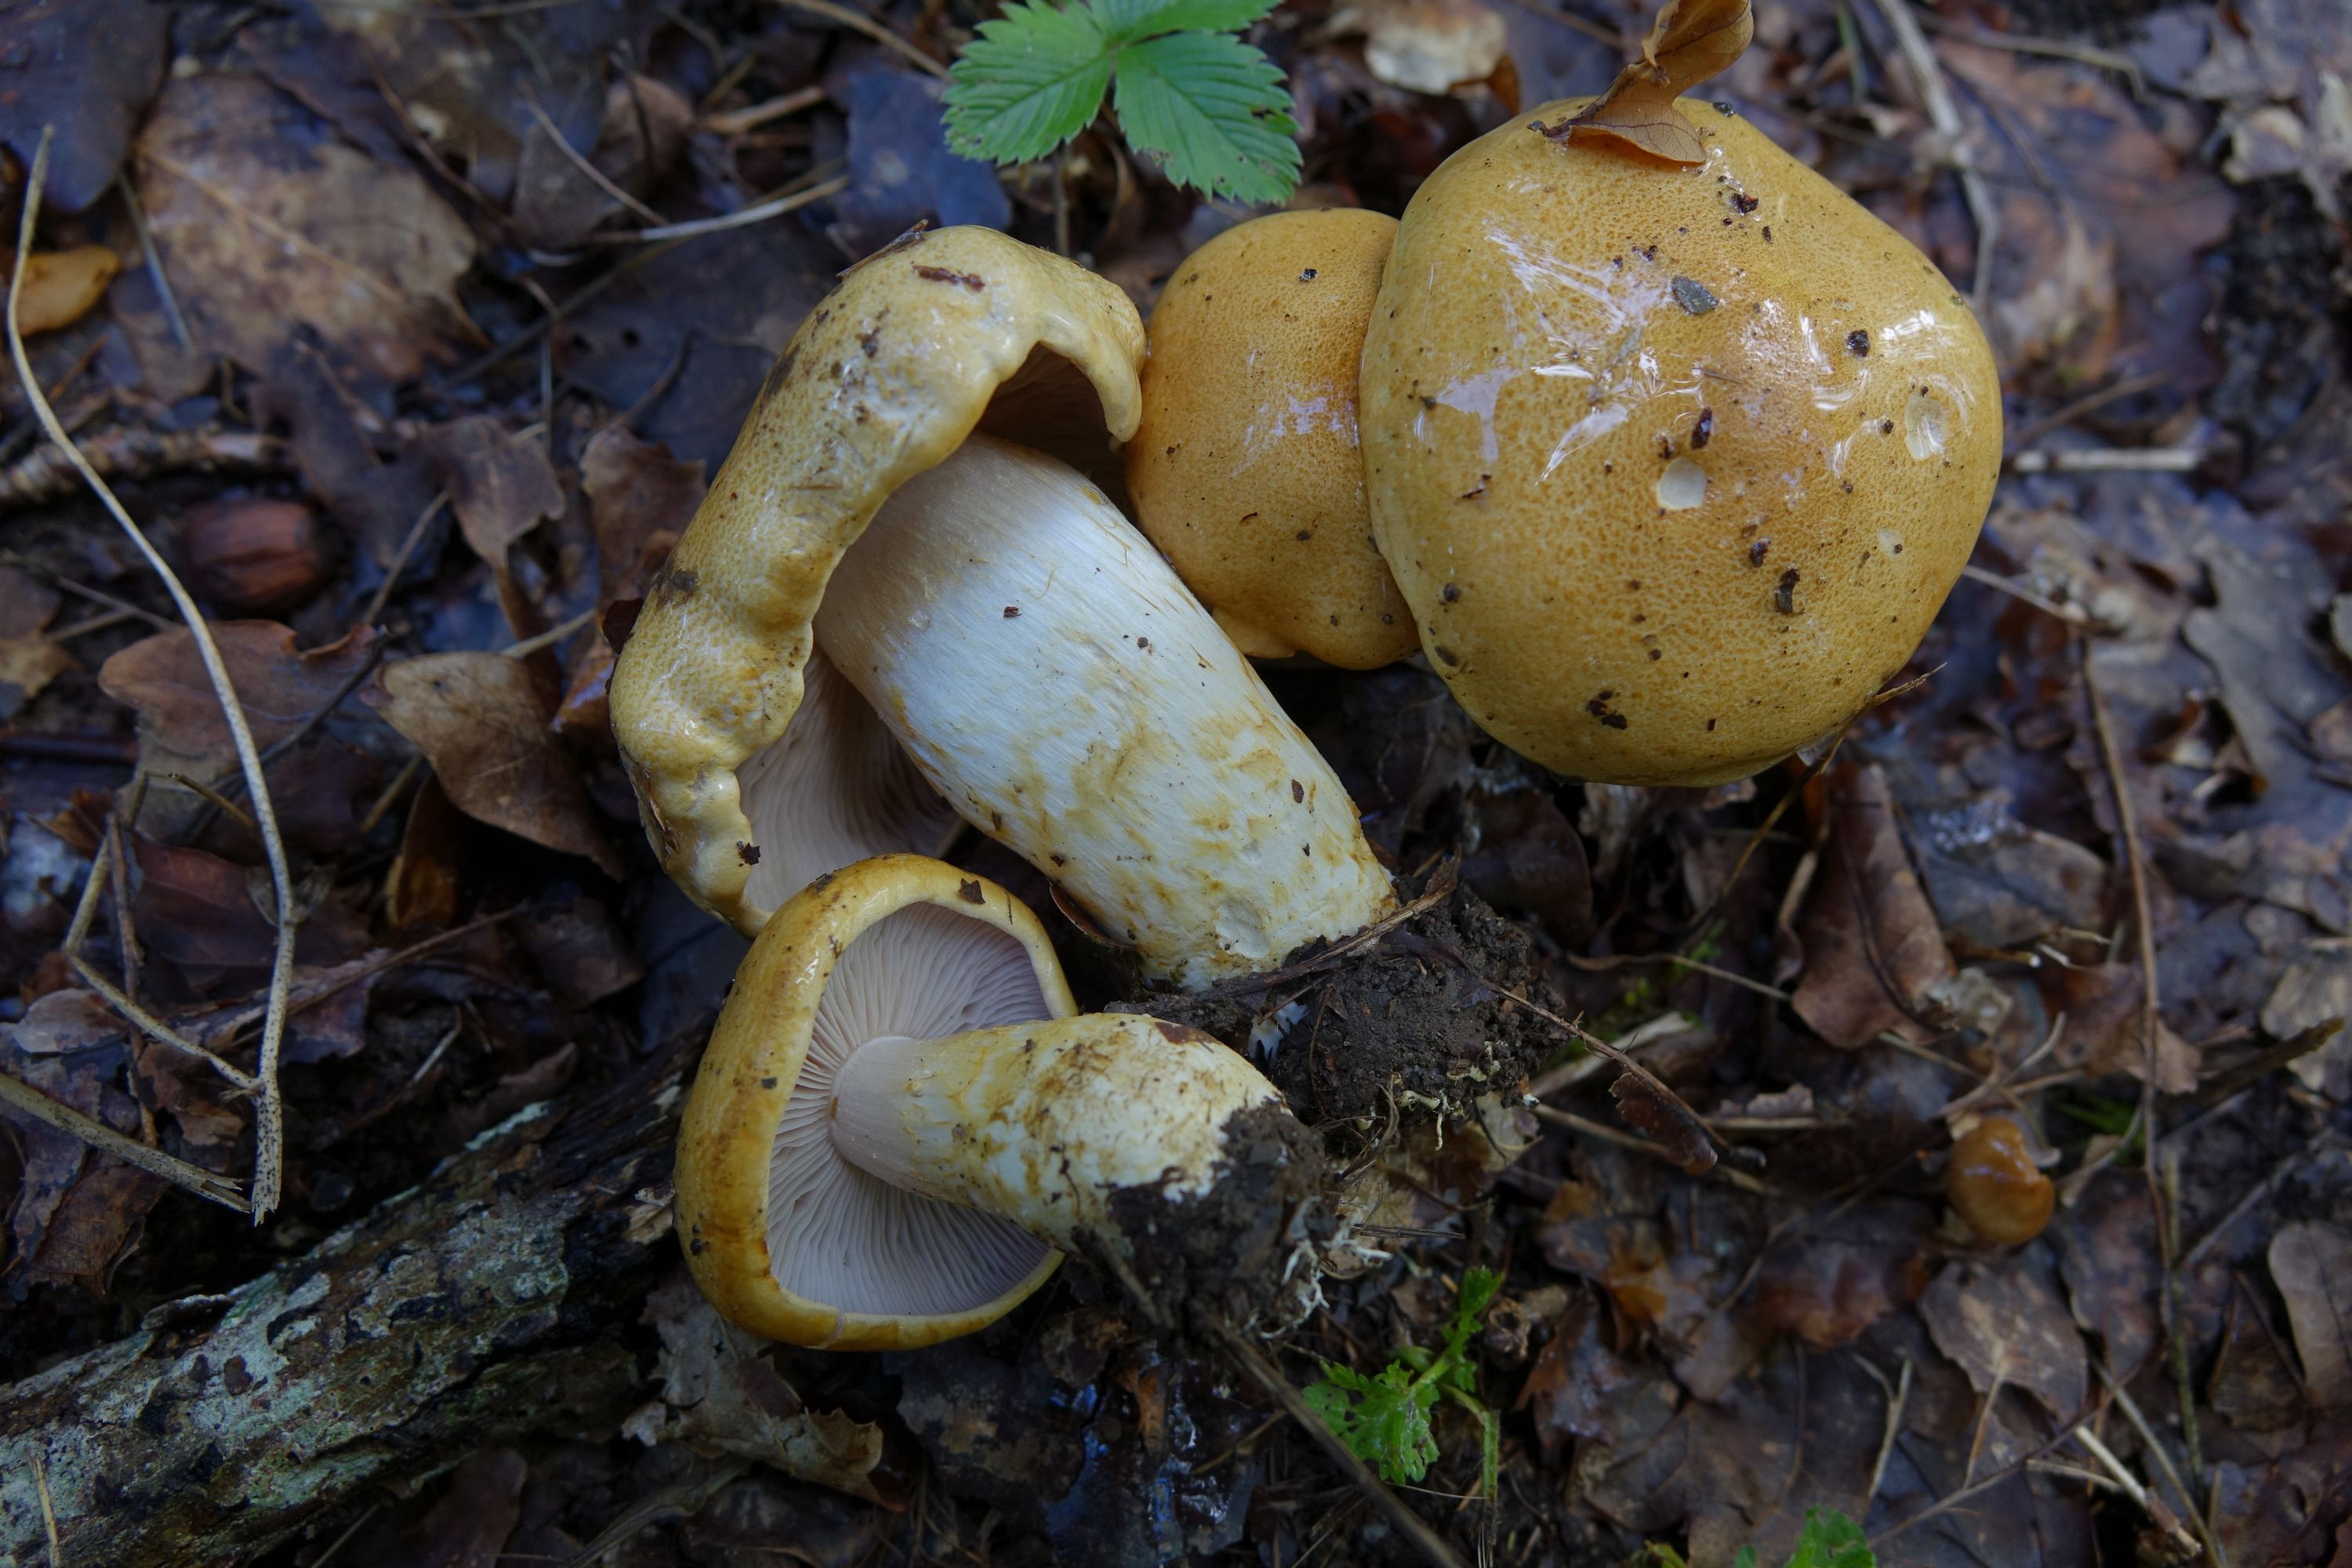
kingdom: Fungi
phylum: Basidiomycota
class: Agaricomycetes
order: Agaricales
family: Cortinariaceae
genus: Phlegmacium
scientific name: Phlegmacium ochraceobrunneum
